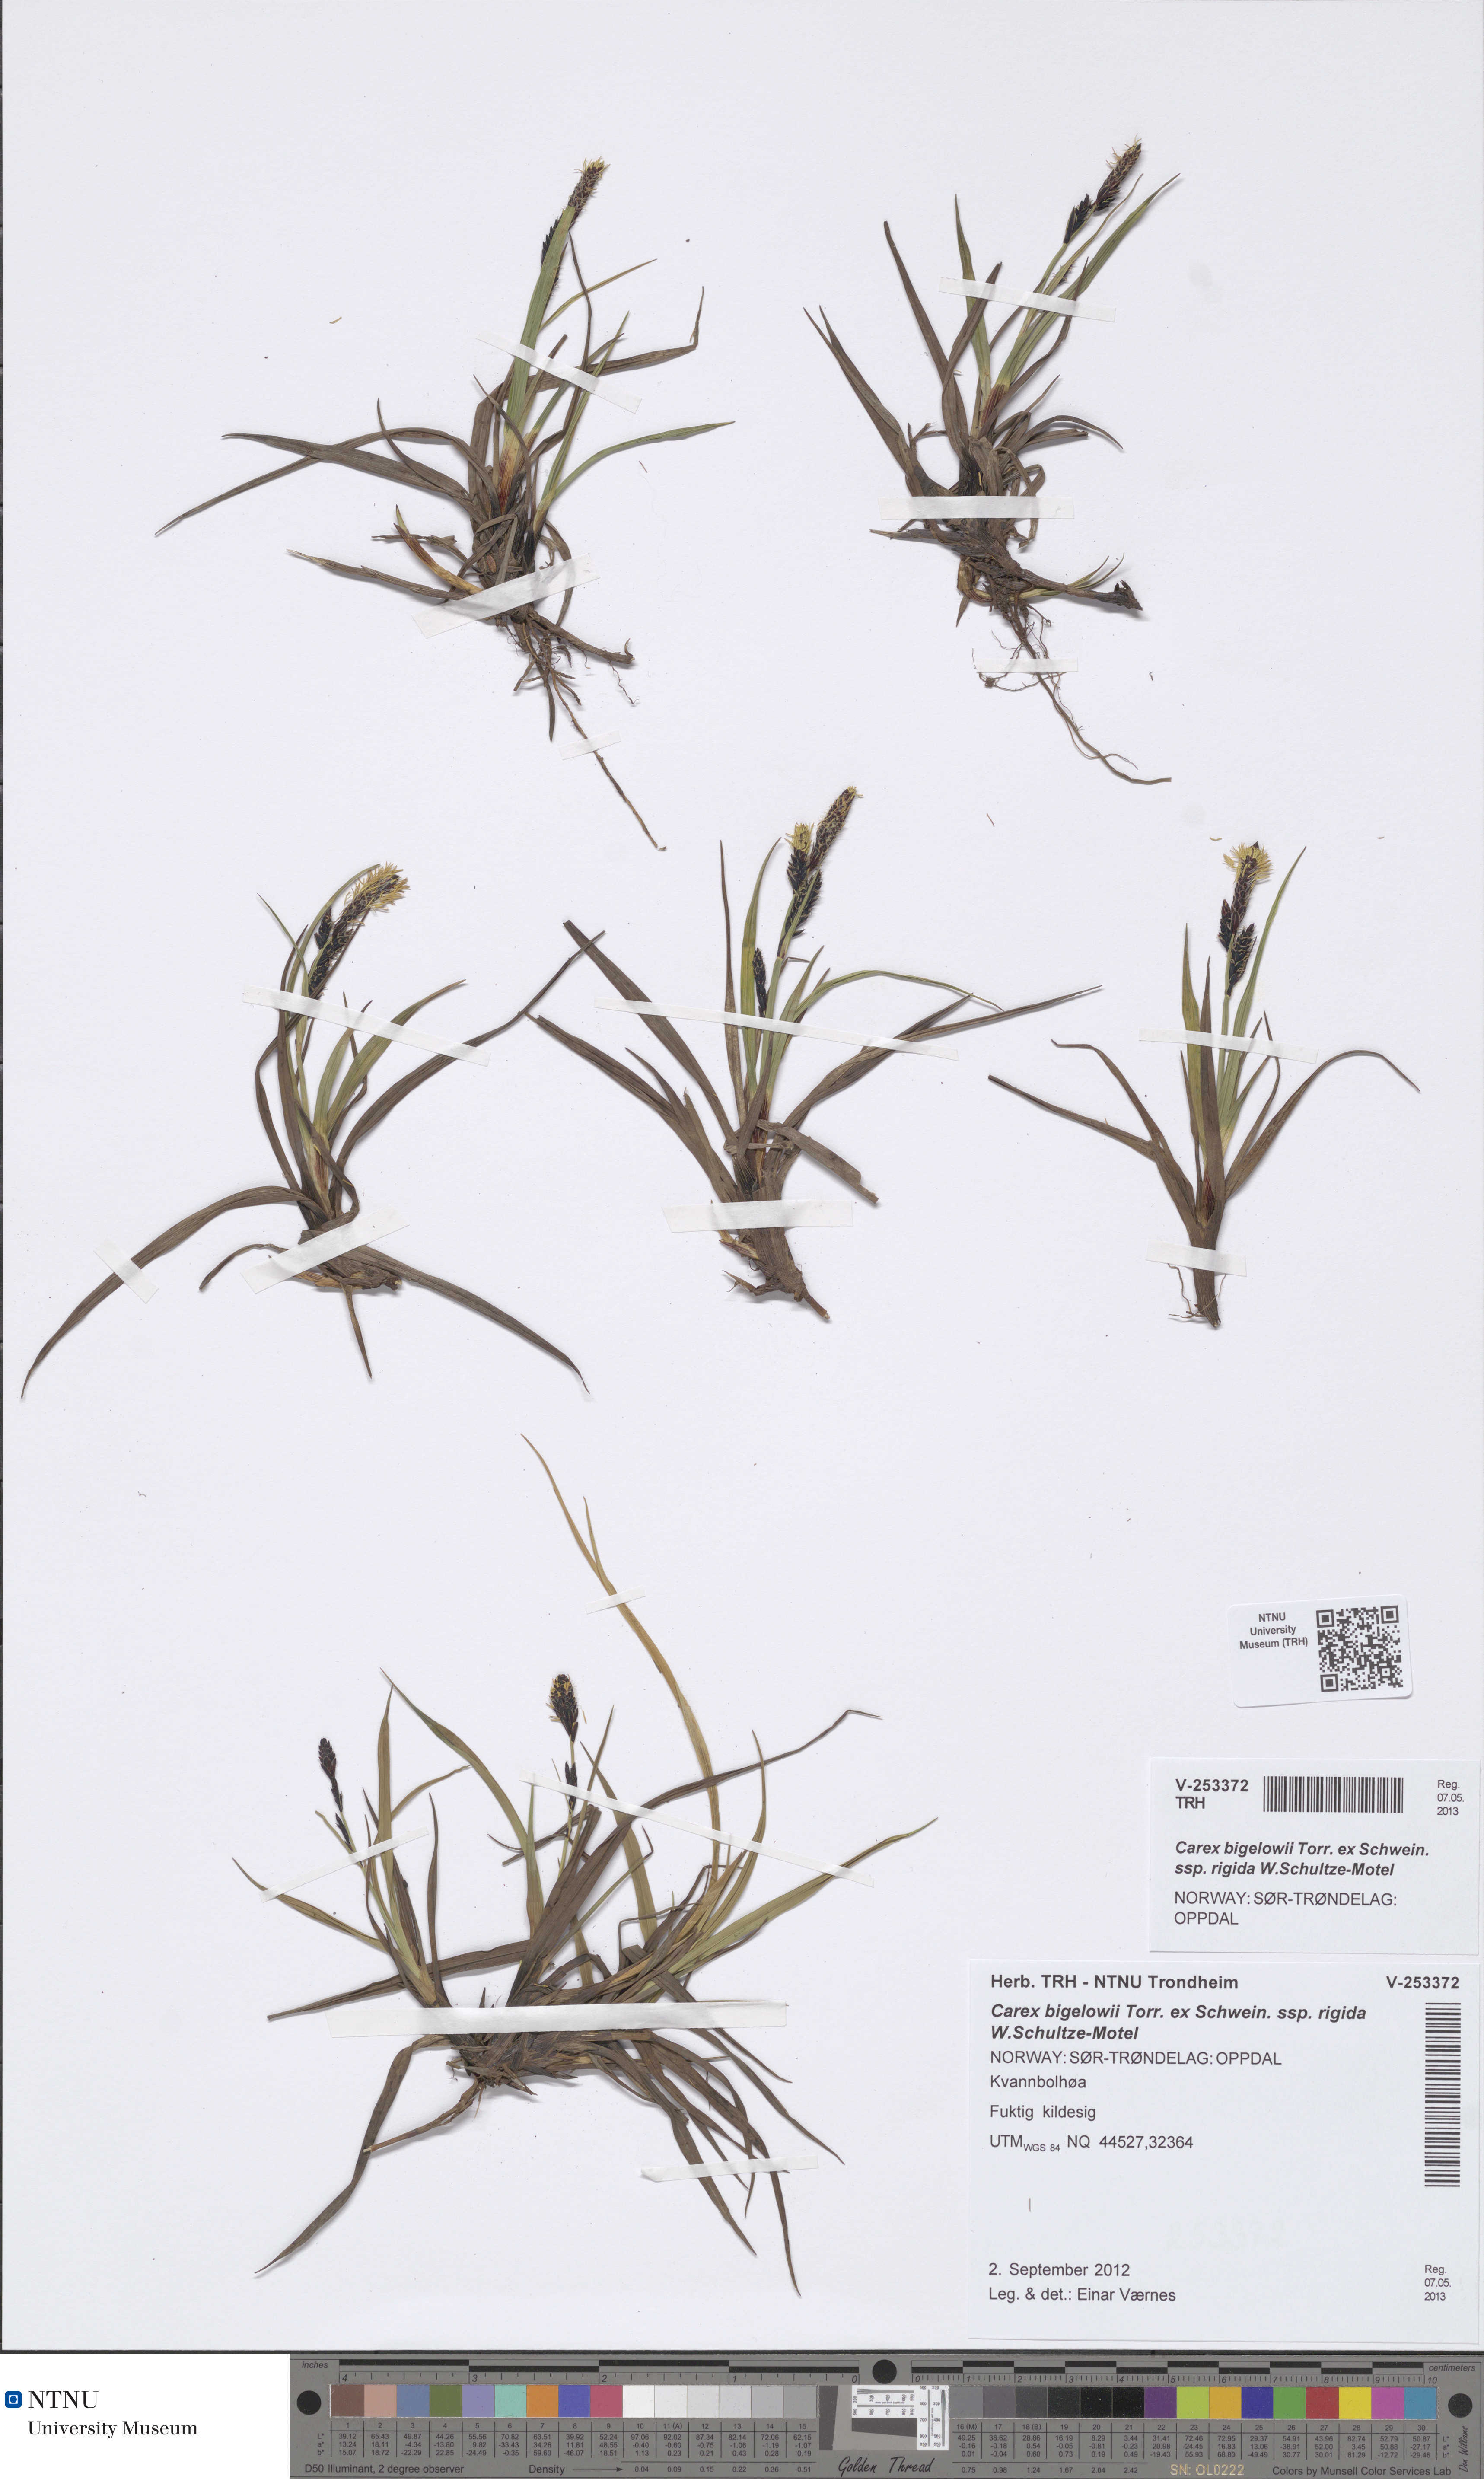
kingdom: Plantae
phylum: Tracheophyta
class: Liliopsida
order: Poales
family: Cyperaceae
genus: Carex
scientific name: Carex dacica
